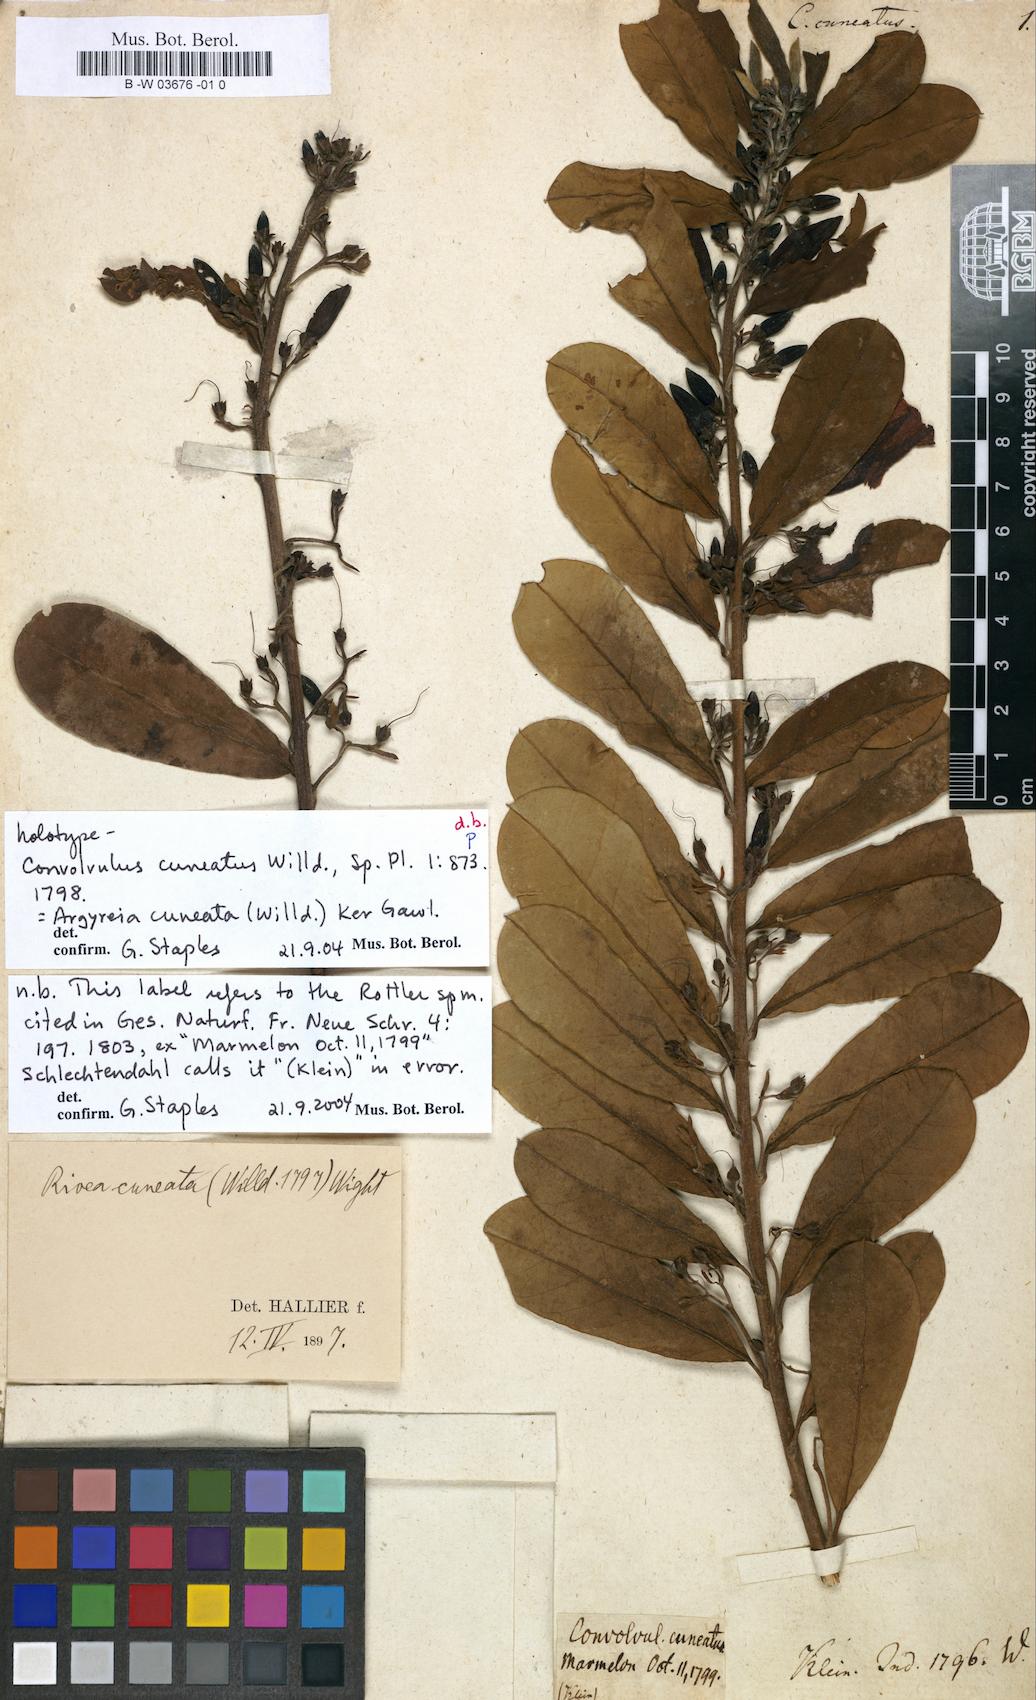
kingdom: Plantae
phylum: Tracheophyta
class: Magnoliopsida
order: Solanales
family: Convolvulaceae
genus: Argyreia
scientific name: Argyreia cuneata
